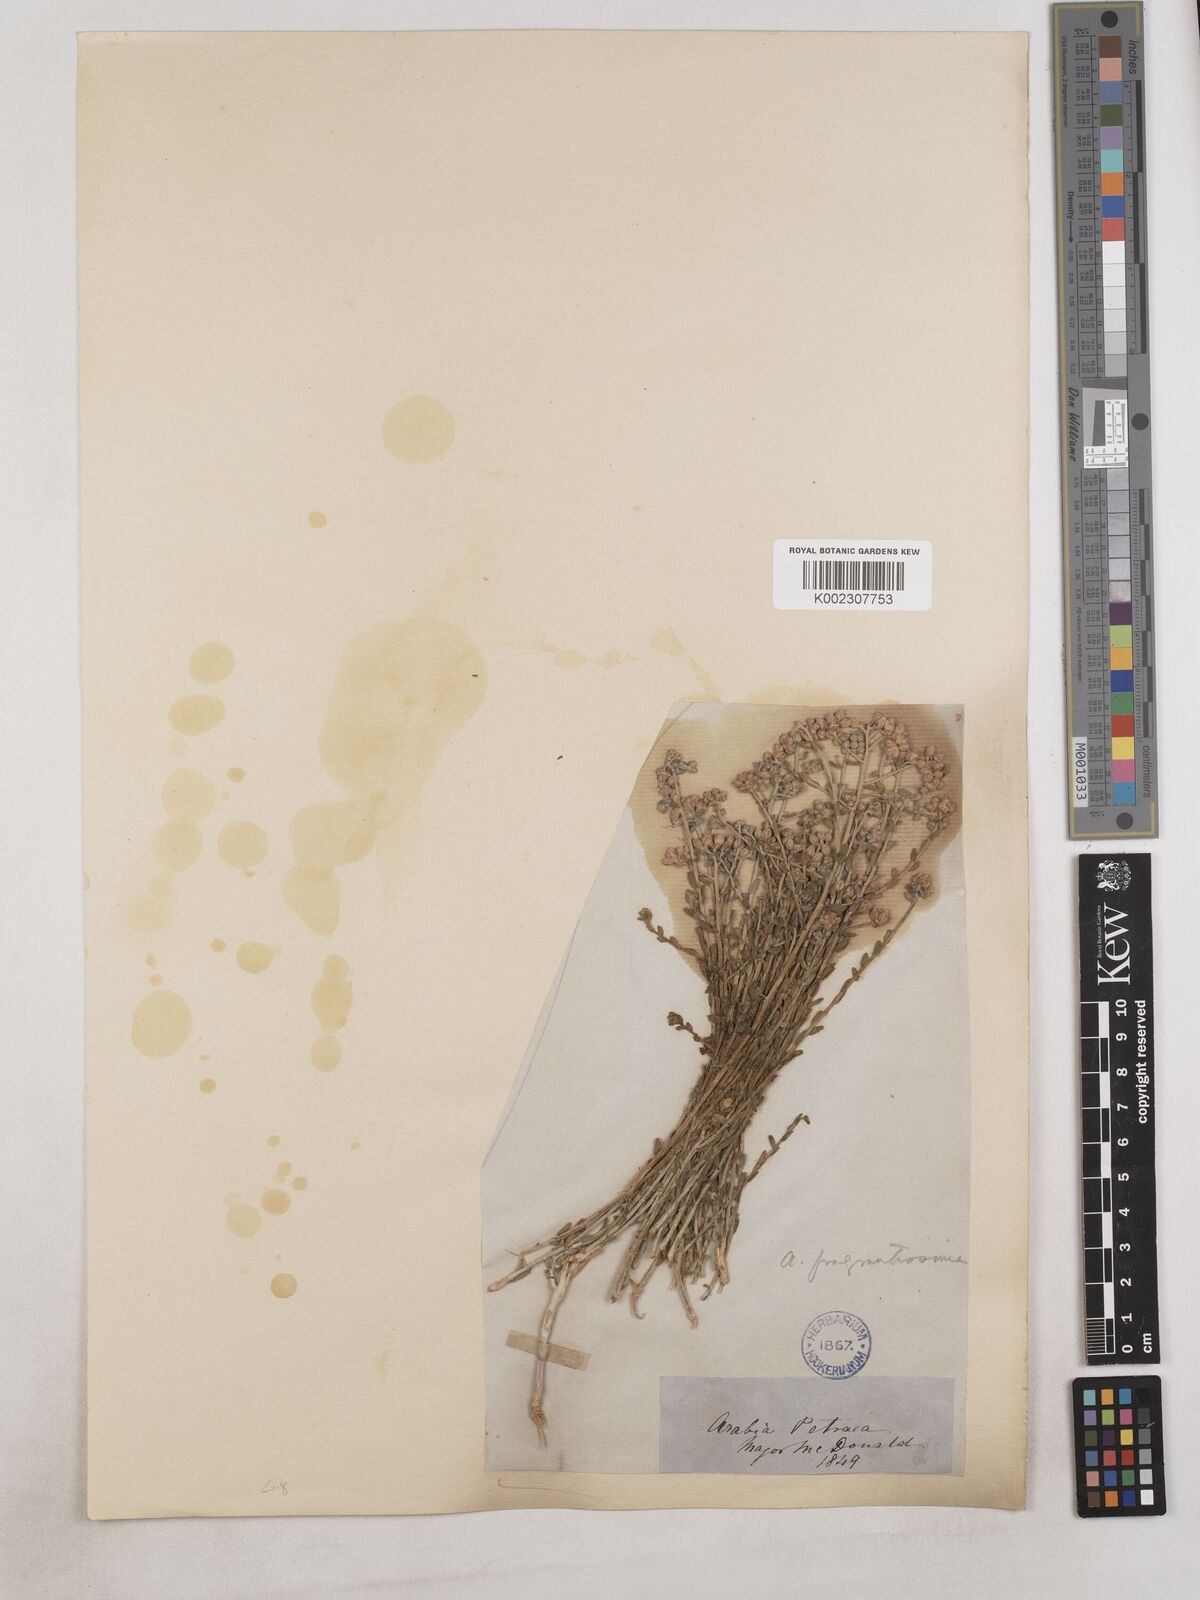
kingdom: Plantae
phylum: Tracheophyta
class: Magnoliopsida
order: Asterales
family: Asteraceae
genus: Achillea
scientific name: Achillea fragrantissima
